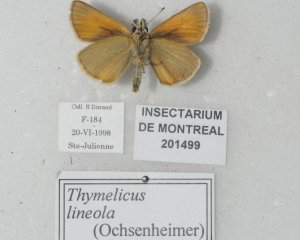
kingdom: Animalia
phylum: Arthropoda
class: Insecta
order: Lepidoptera
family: Hesperiidae
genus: Thymelicus
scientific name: Thymelicus lineola
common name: European Skipper
